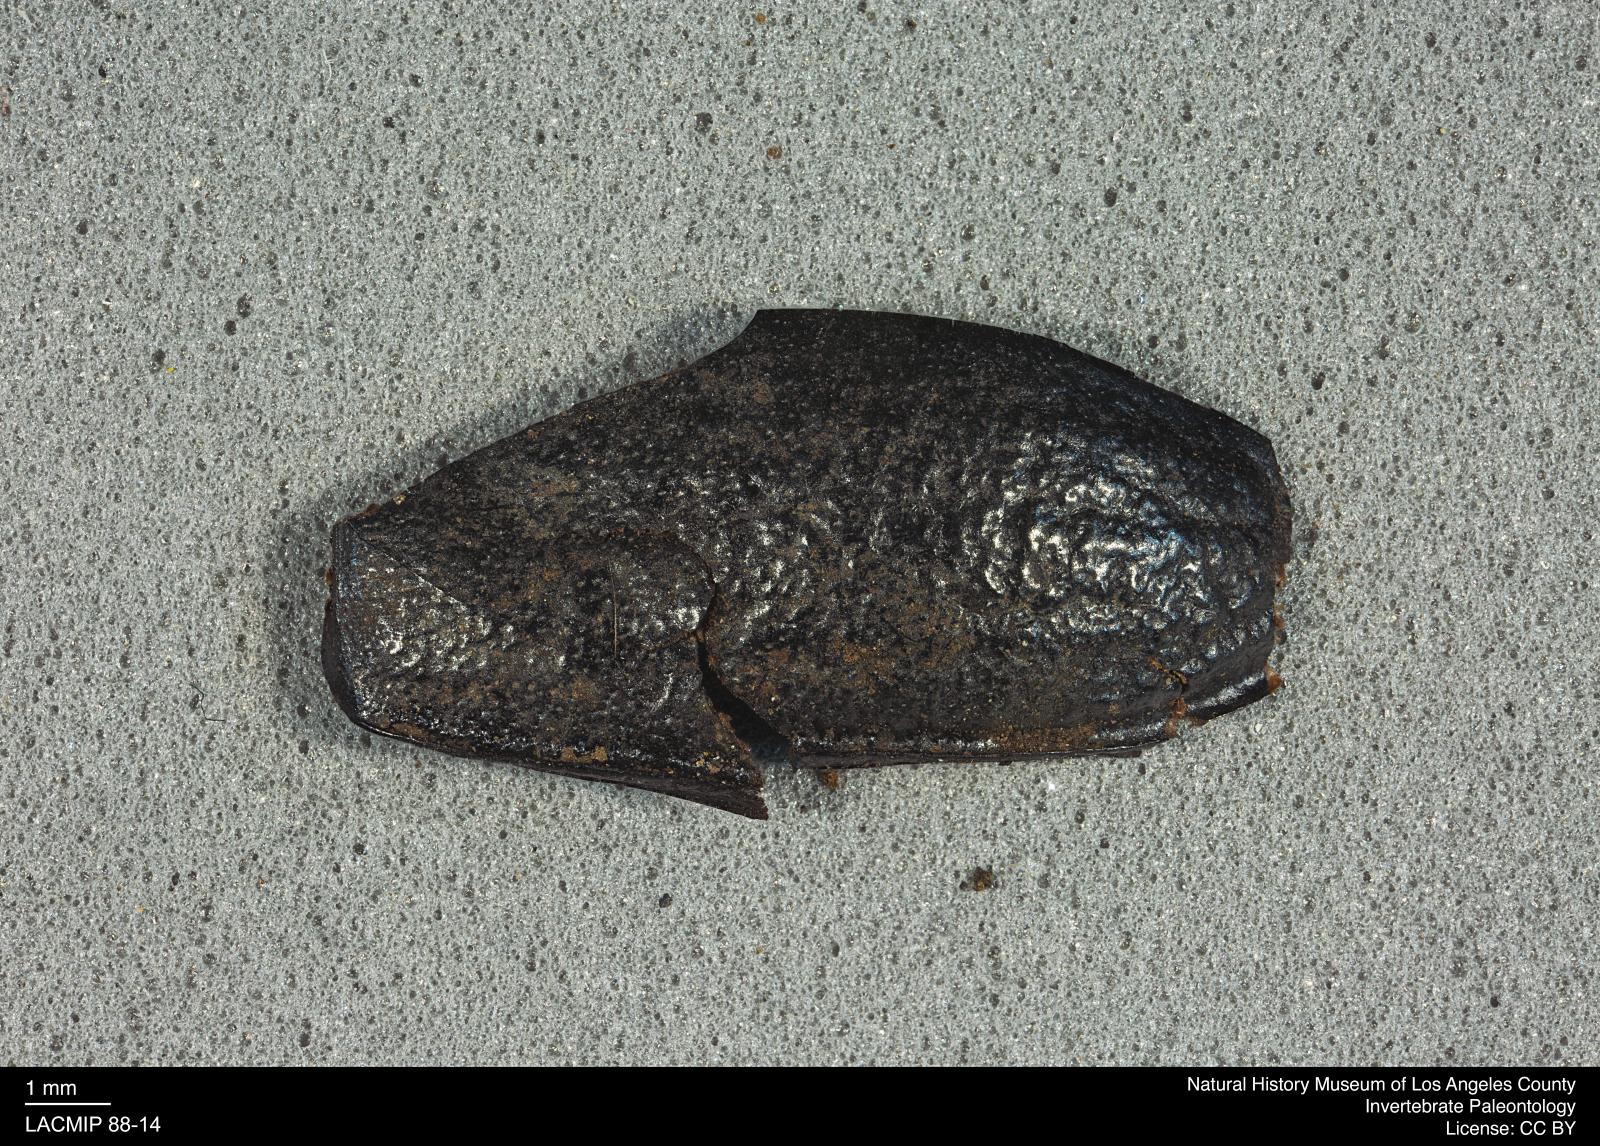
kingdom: Animalia
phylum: Arthropoda
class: Insecta
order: Coleoptera
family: Tenebrionidae
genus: Coniontis
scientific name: Coniontis abdominalis
